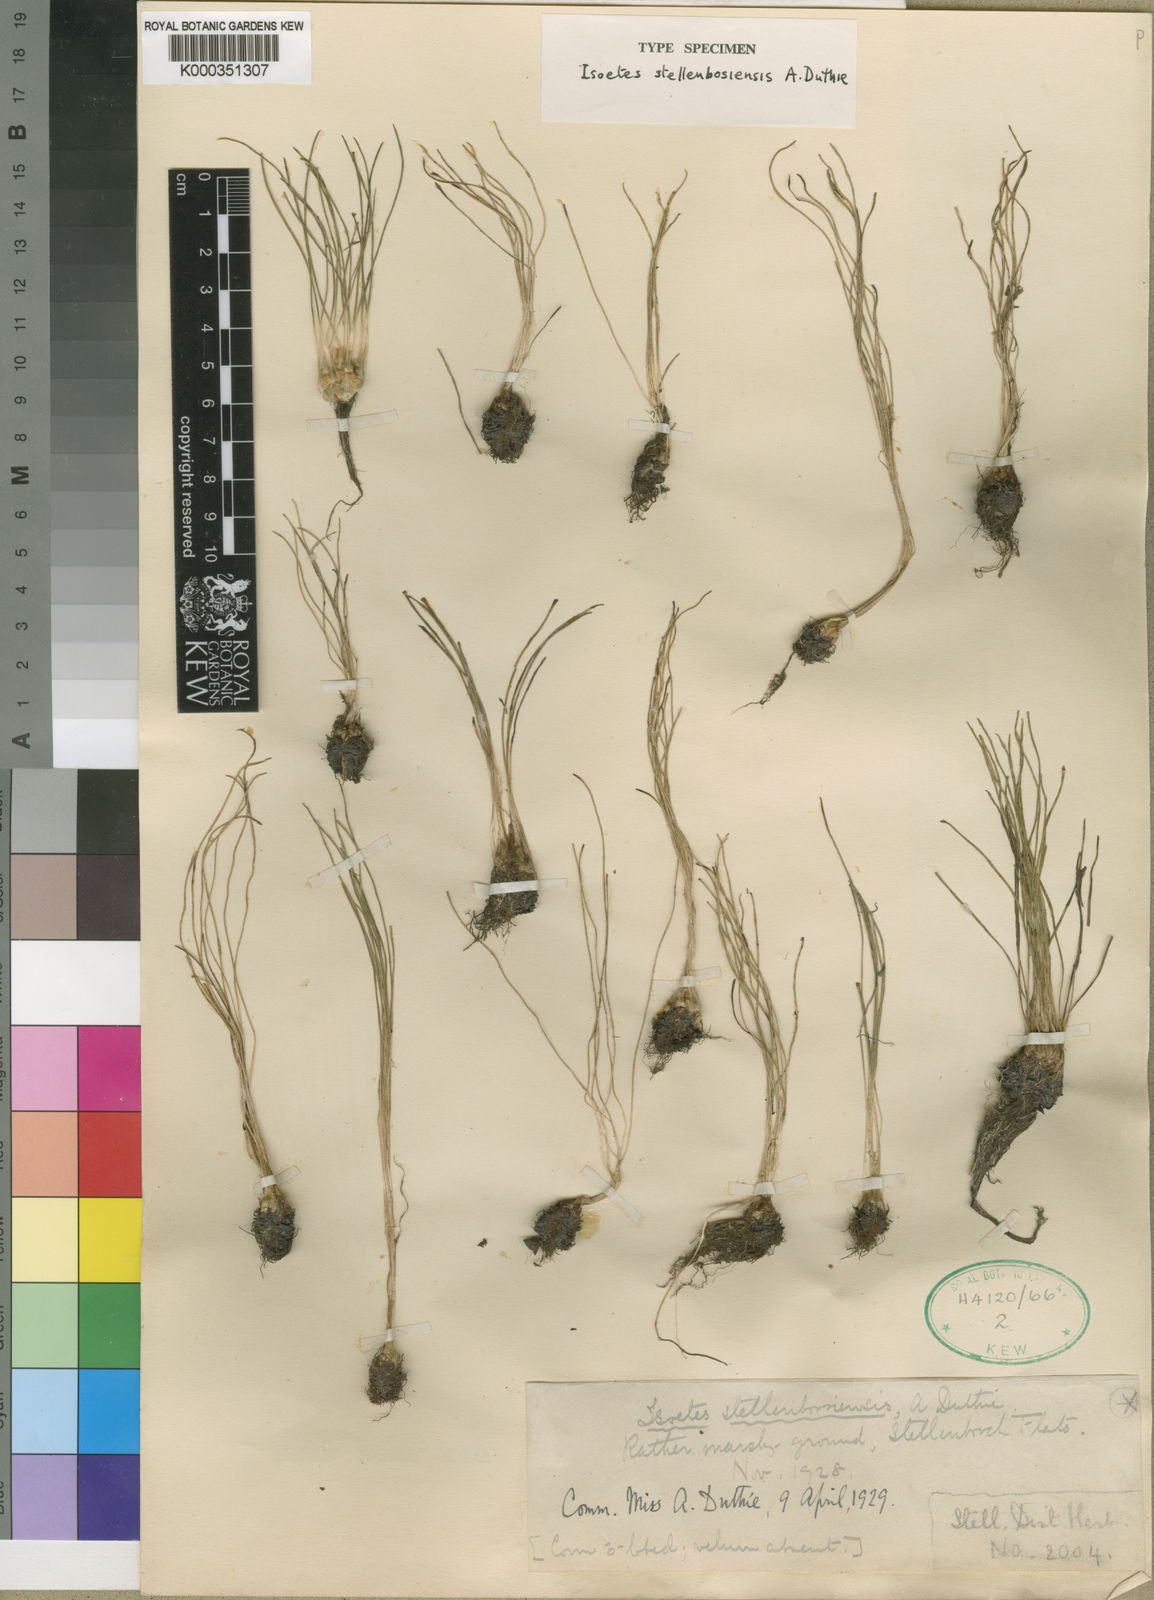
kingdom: Plantae
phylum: Tracheophyta
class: Lycopodiopsida
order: Isoetales
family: Isoetaceae
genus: Isoetes
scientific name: Isoetes stellenbossiensis
